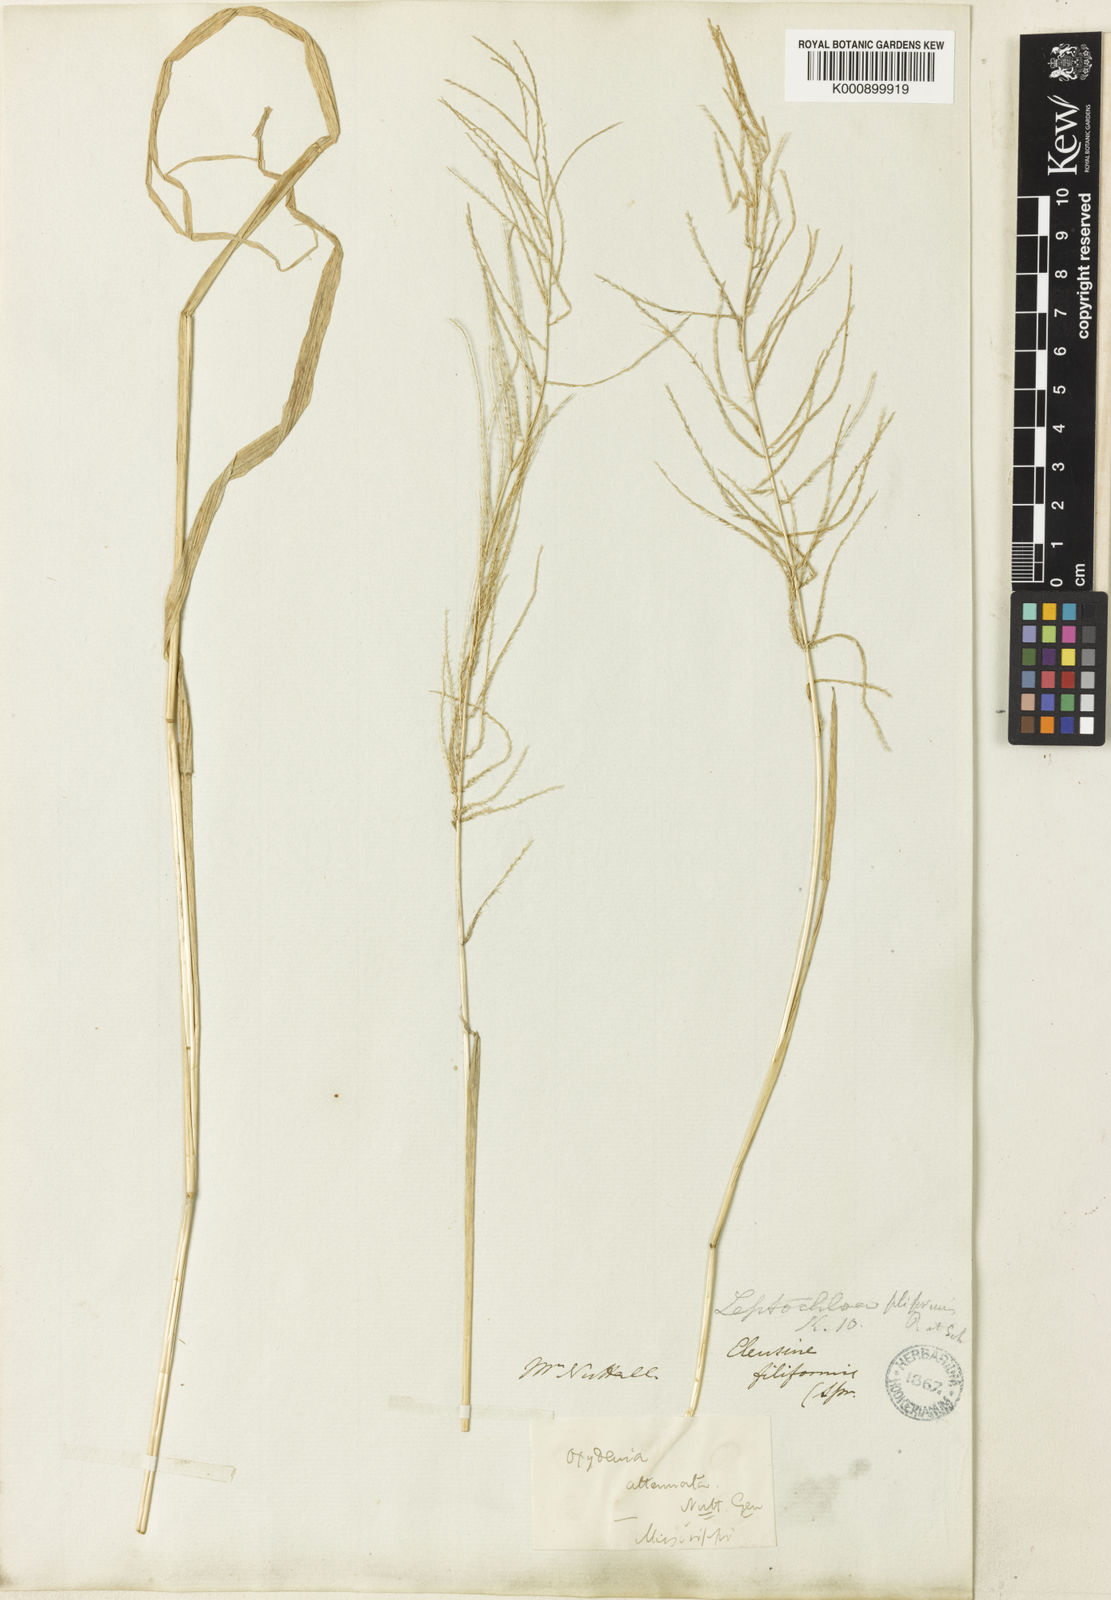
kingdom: Plantae
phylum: Tracheophyta
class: Liliopsida
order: Poales
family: Poaceae
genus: Leptochloa
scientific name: Leptochloa mucronata
